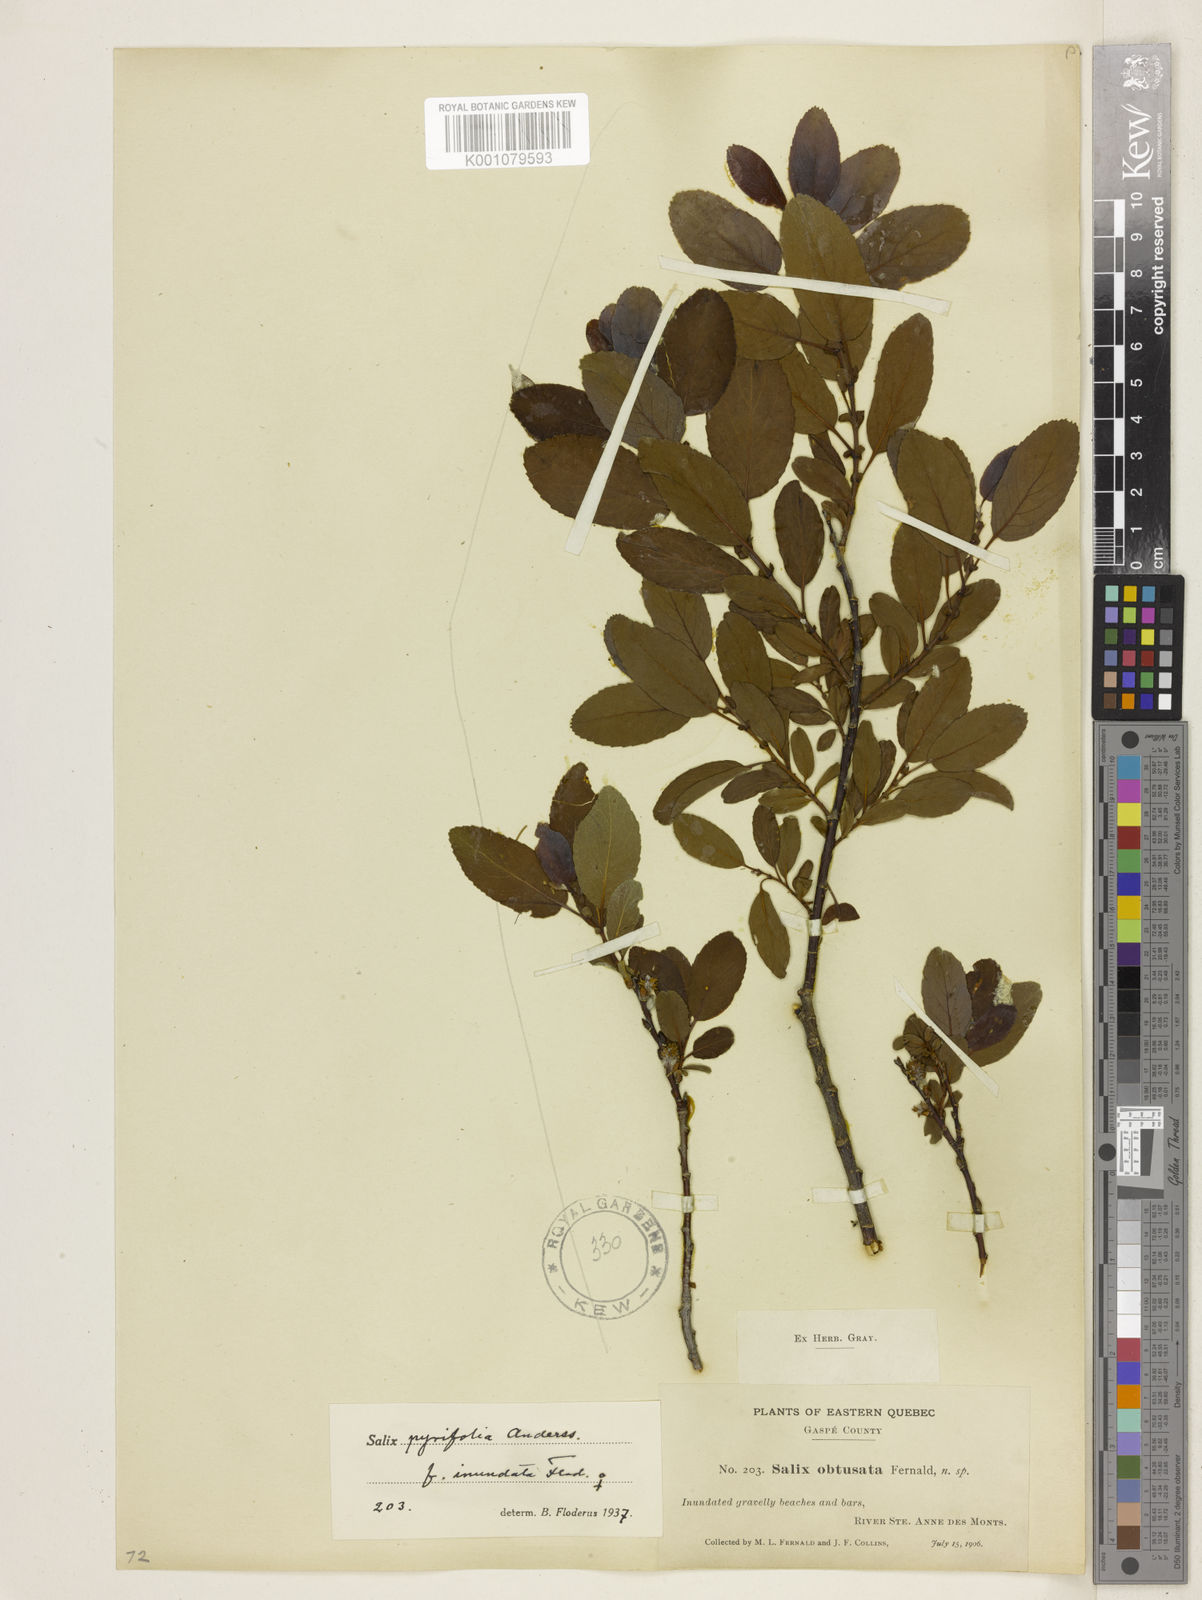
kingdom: Plantae
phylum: Tracheophyta
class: Magnoliopsida
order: Malpighiales
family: Salicaceae
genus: Salix
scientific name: Salix purpurea
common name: Purple willow
